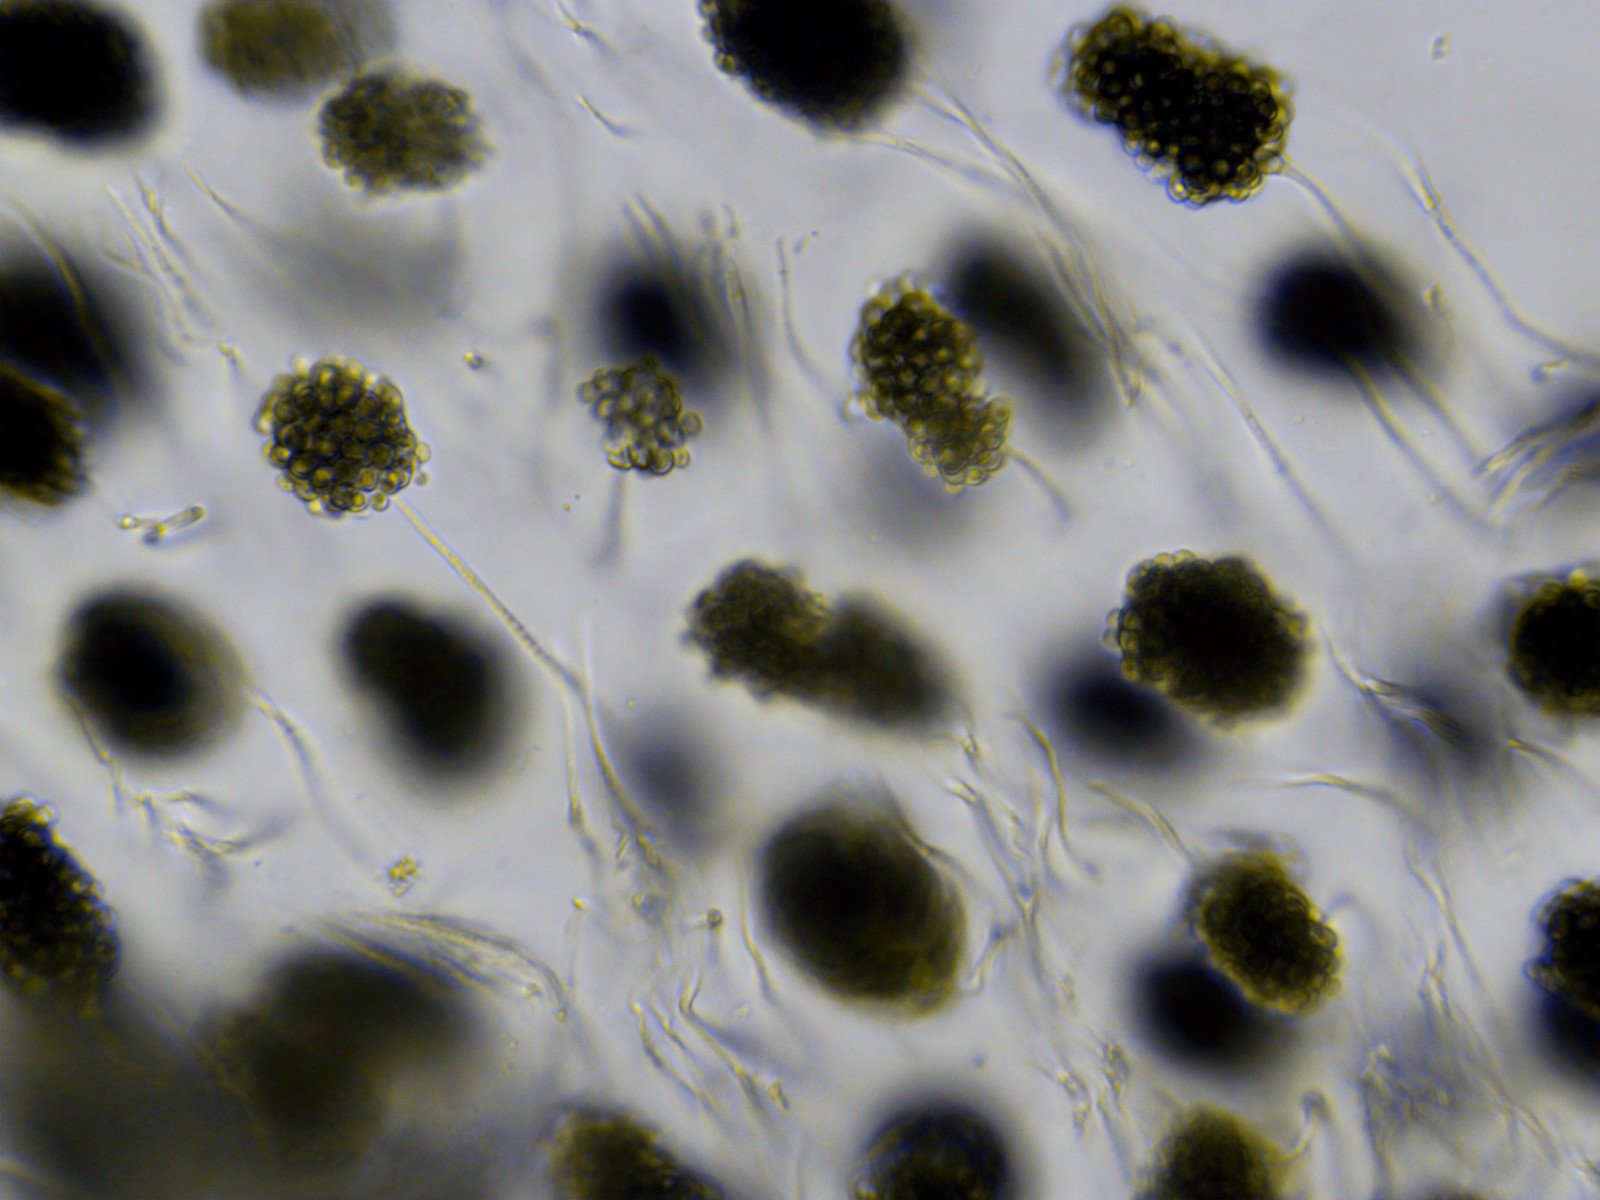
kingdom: Fungi
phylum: Ascomycota
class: Leotiomycetes
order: Helotiales
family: Mollisiaceae
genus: Cheirospora
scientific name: Cheirospora botryospora
